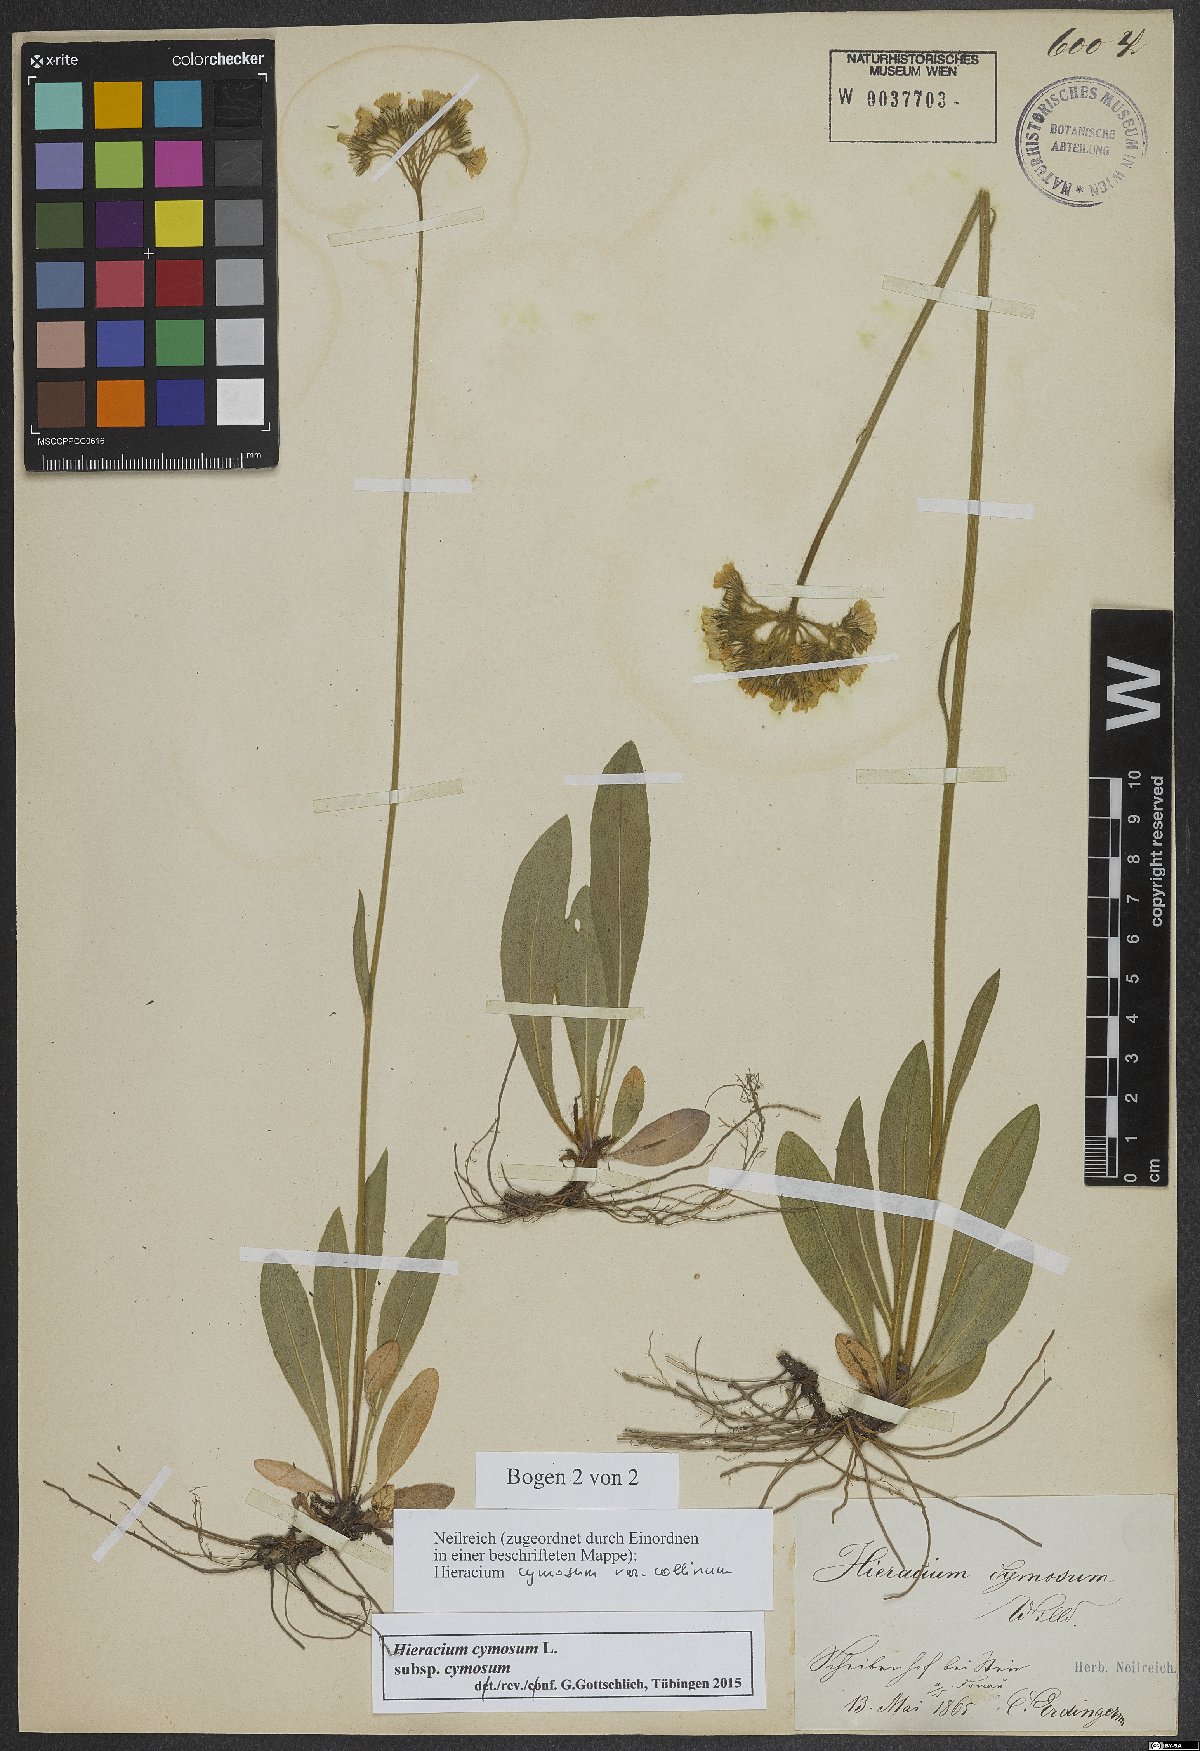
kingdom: Plantae
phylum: Tracheophyta
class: Magnoliopsida
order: Asterales
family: Asteraceae
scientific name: Asteraceae
